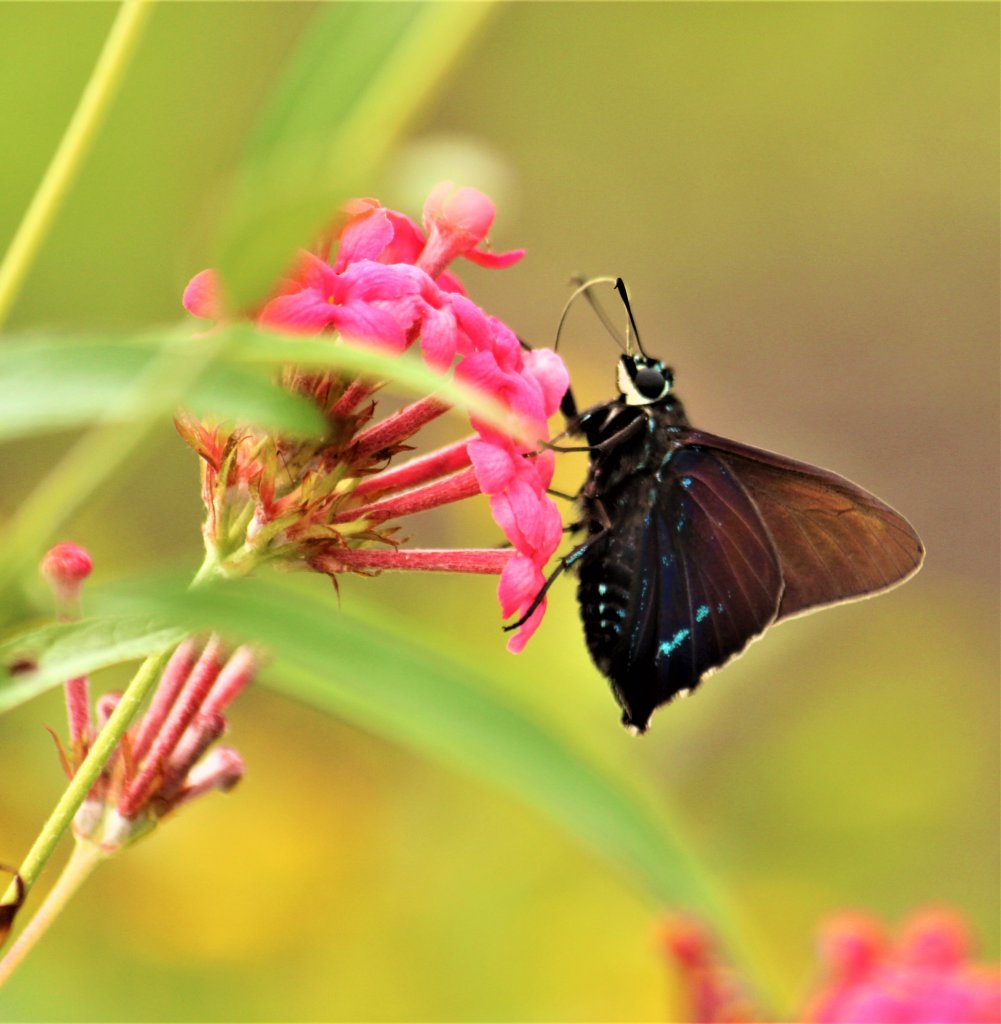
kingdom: Animalia
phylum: Arthropoda
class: Insecta
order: Lepidoptera
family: Nymphalidae
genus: Anartia
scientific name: Anartia jatrophae
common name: White Peacock
